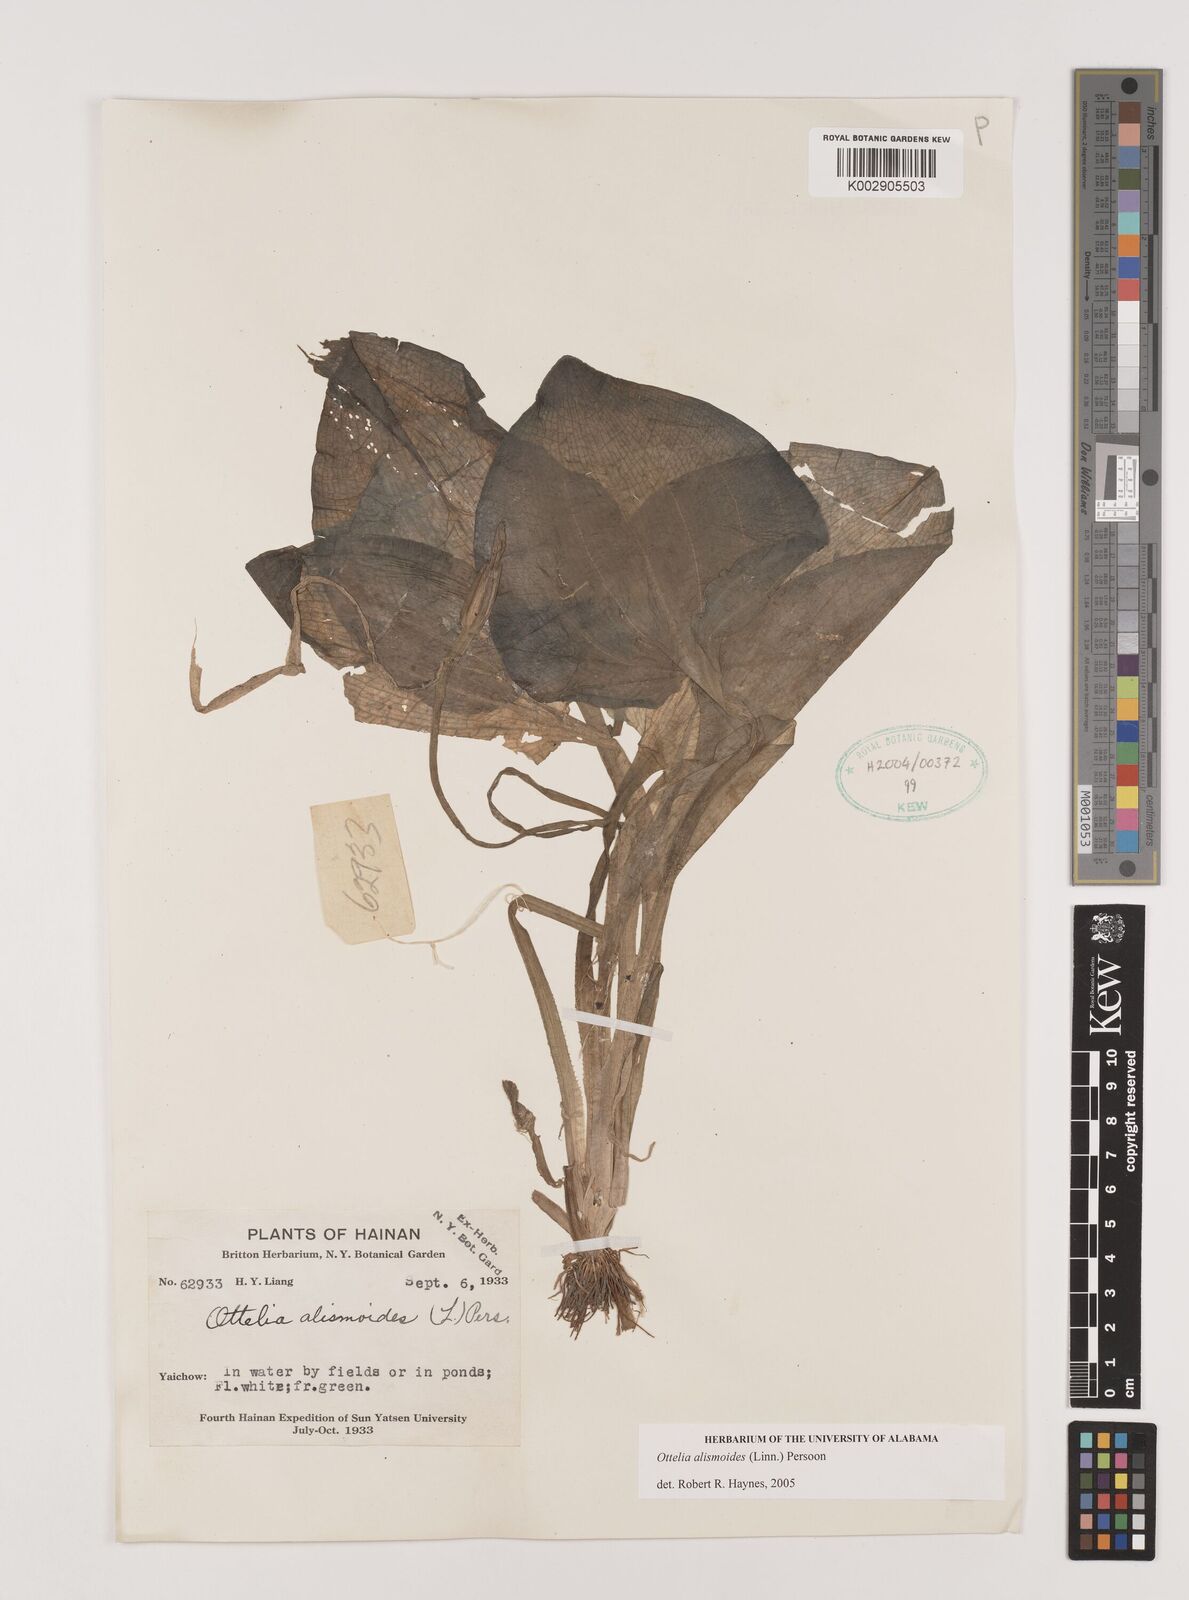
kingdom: Plantae
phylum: Tracheophyta
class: Liliopsida
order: Alismatales
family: Hydrocharitaceae
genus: Ottelia
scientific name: Ottelia alismoides
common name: Duck-lettuce
